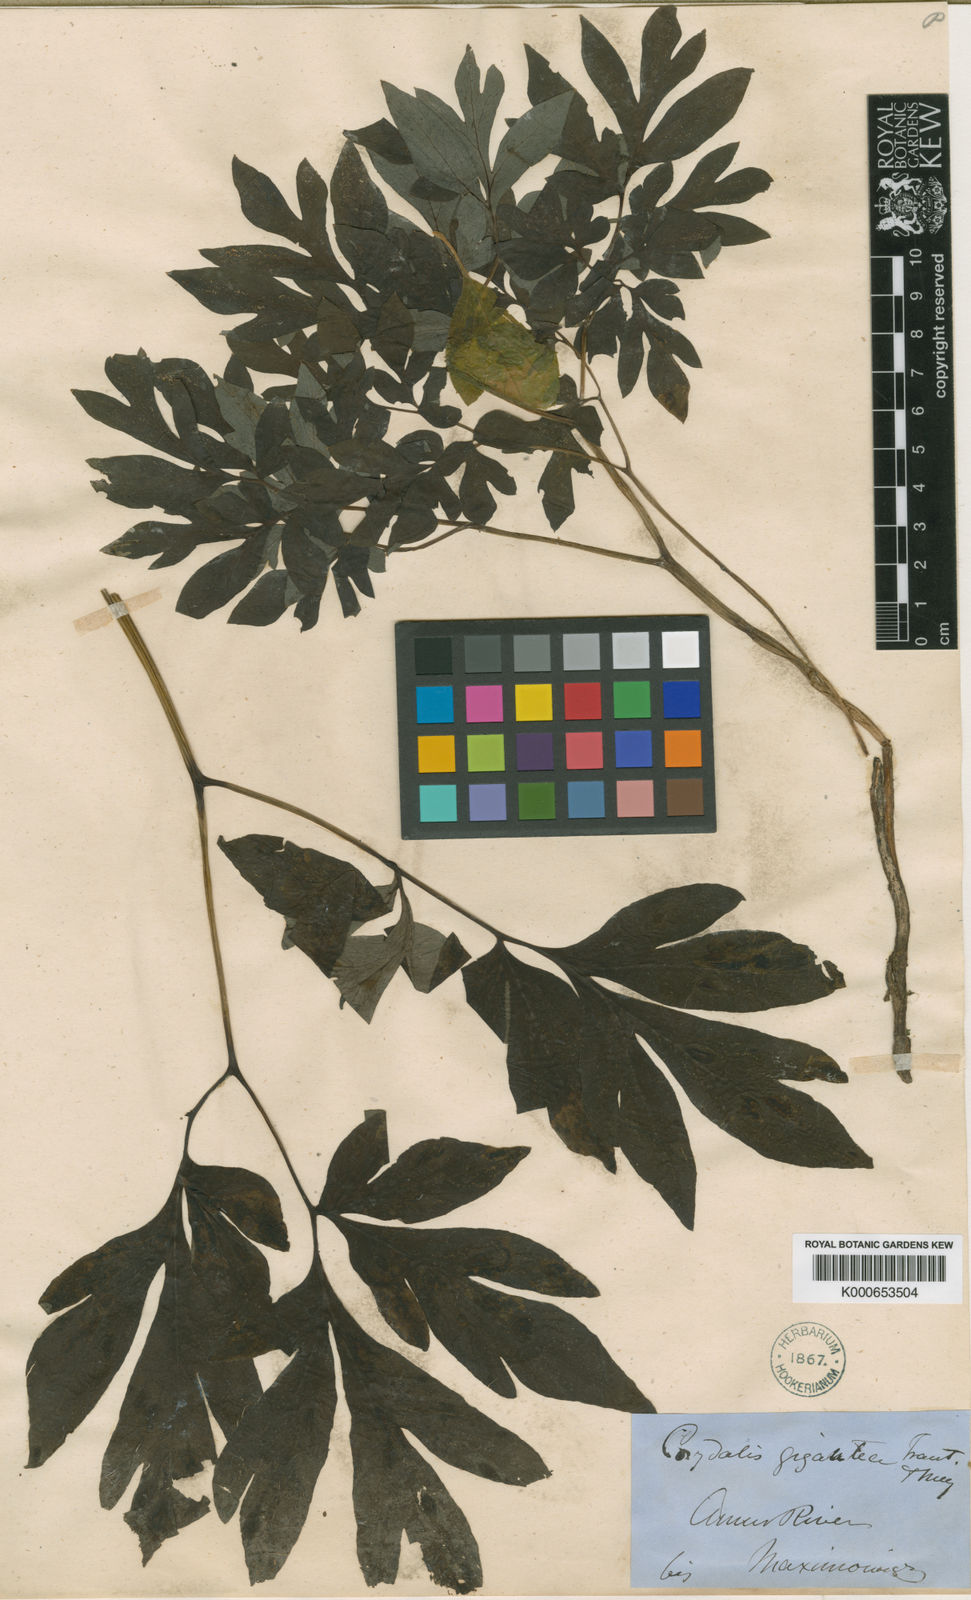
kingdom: Plantae
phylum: Tracheophyta
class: Magnoliopsida
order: Ranunculales
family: Papaveraceae
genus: Corydalis
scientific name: Corydalis gigantea
